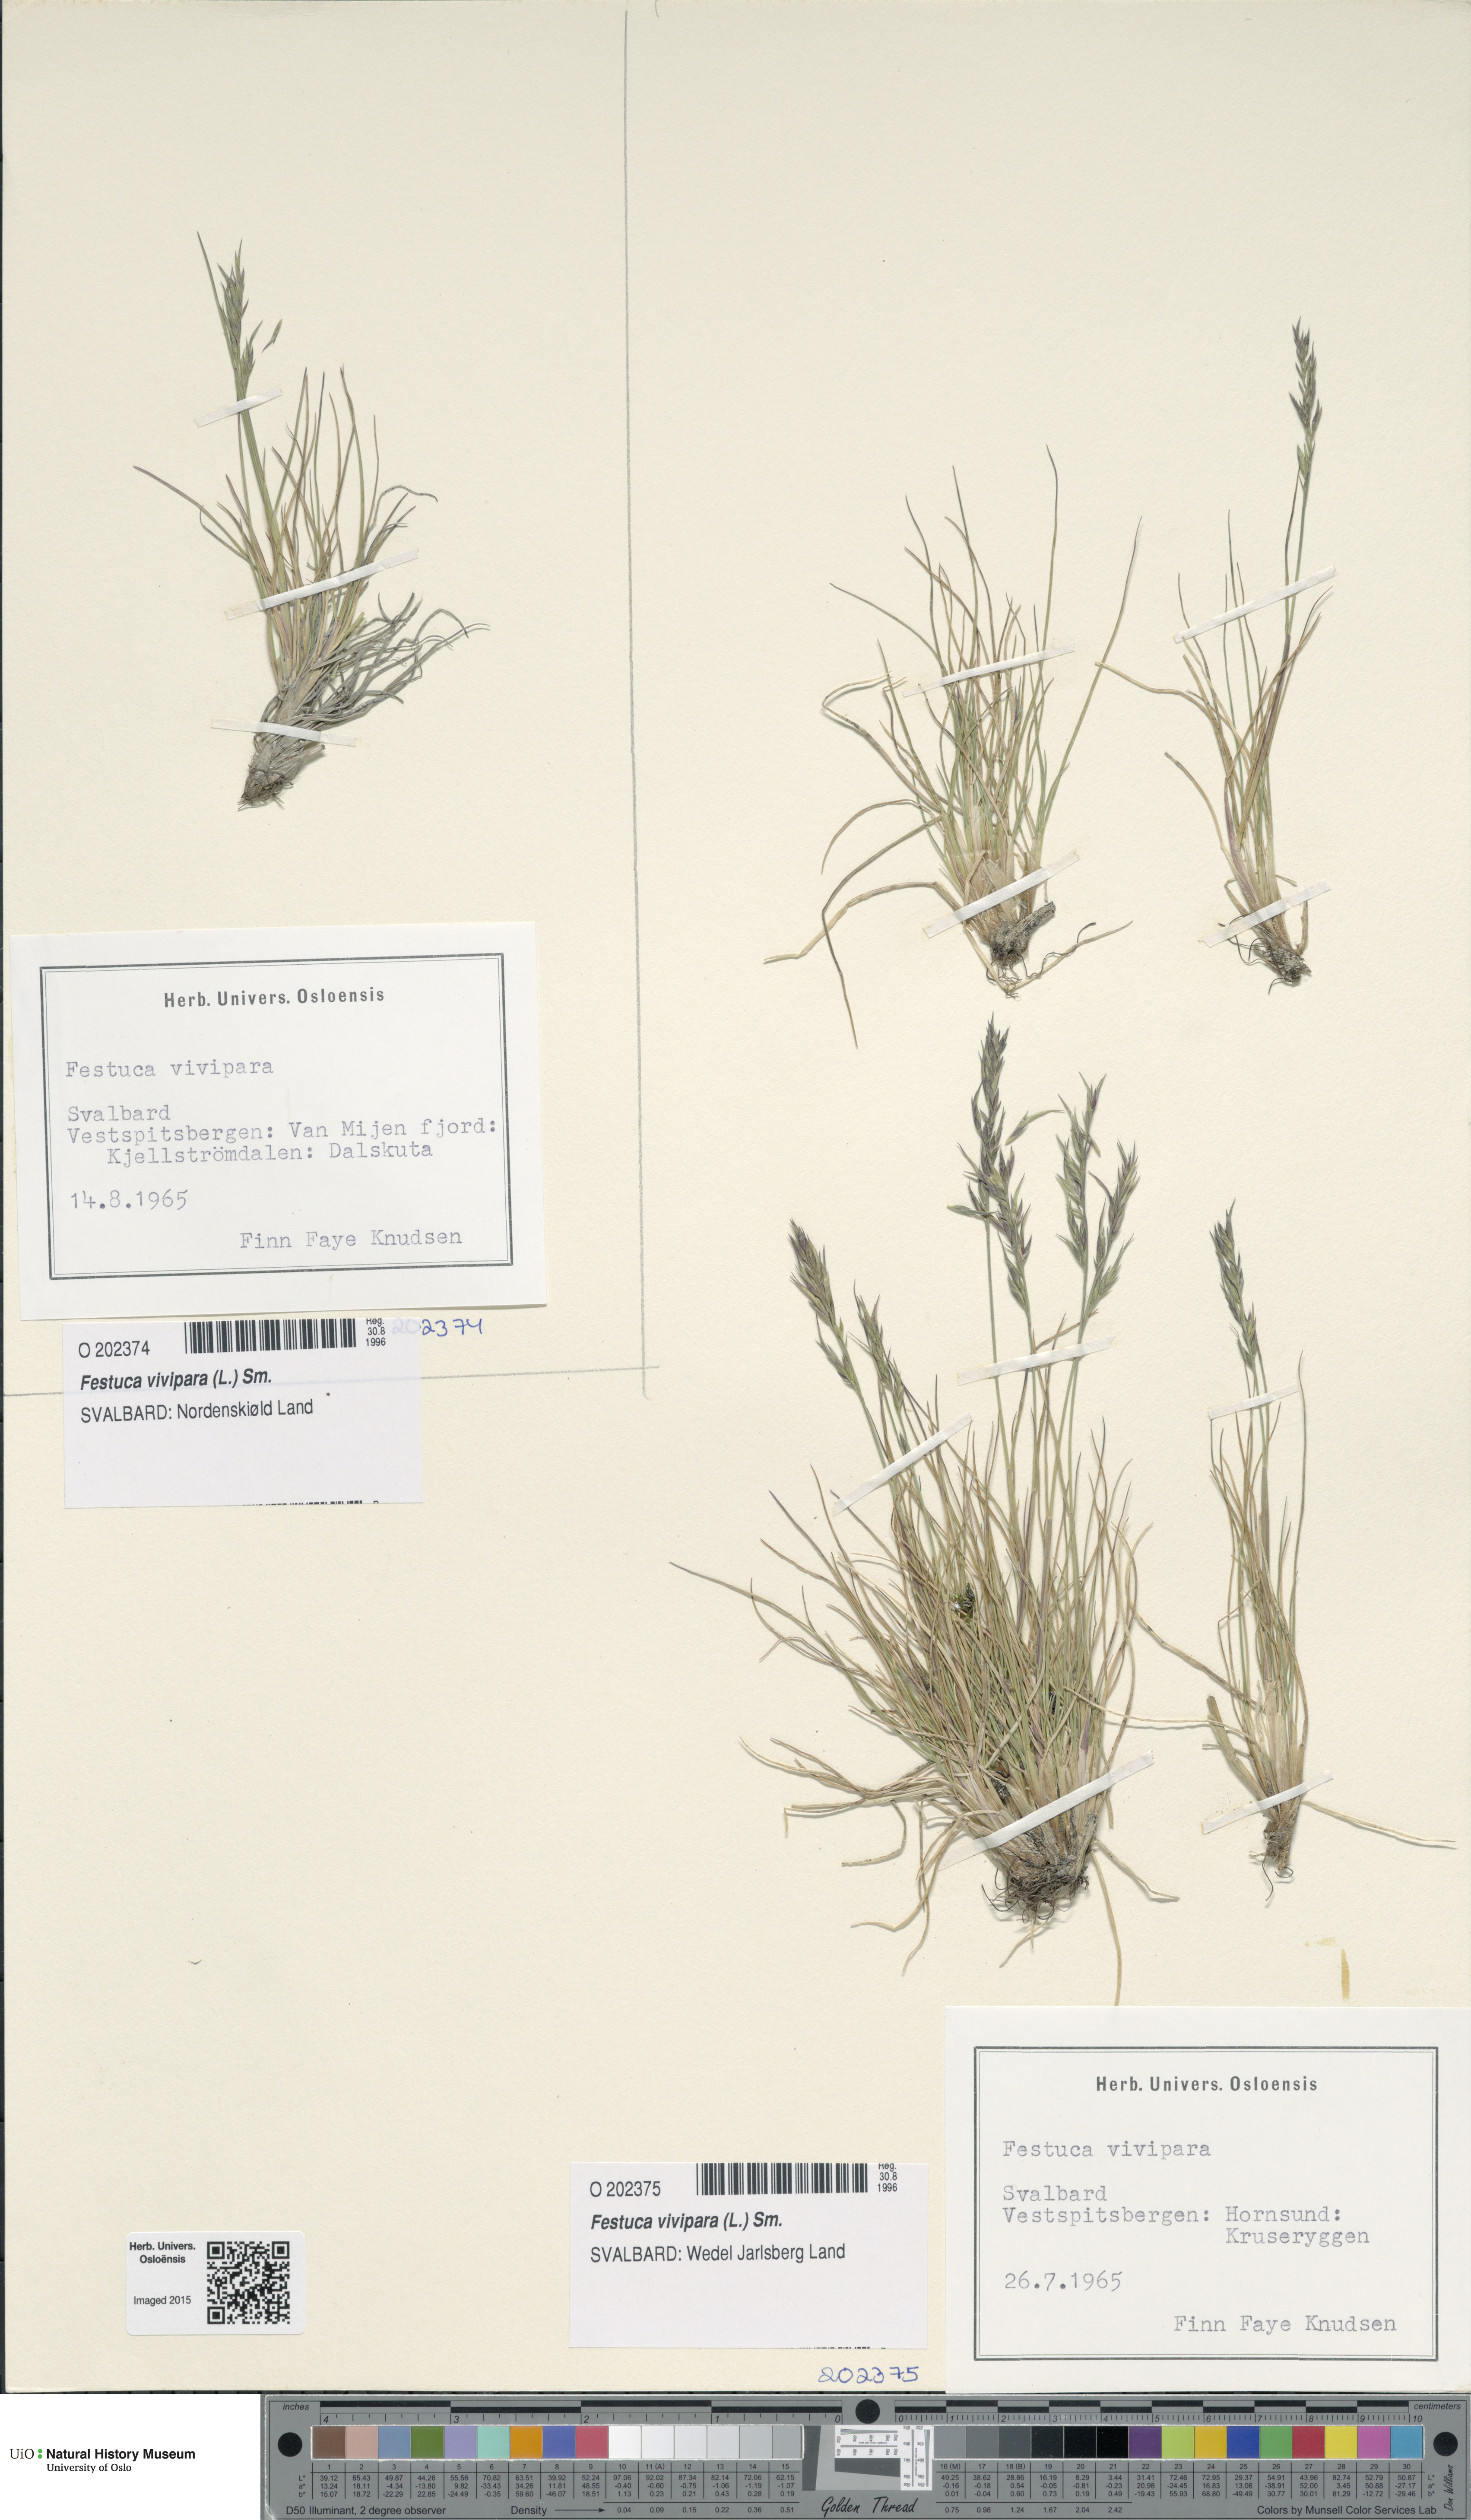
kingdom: Plantae
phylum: Tracheophyta
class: Liliopsida
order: Poales
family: Poaceae
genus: Festuca
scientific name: Festuca vivipara
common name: Viviparous sheep's-fescue
